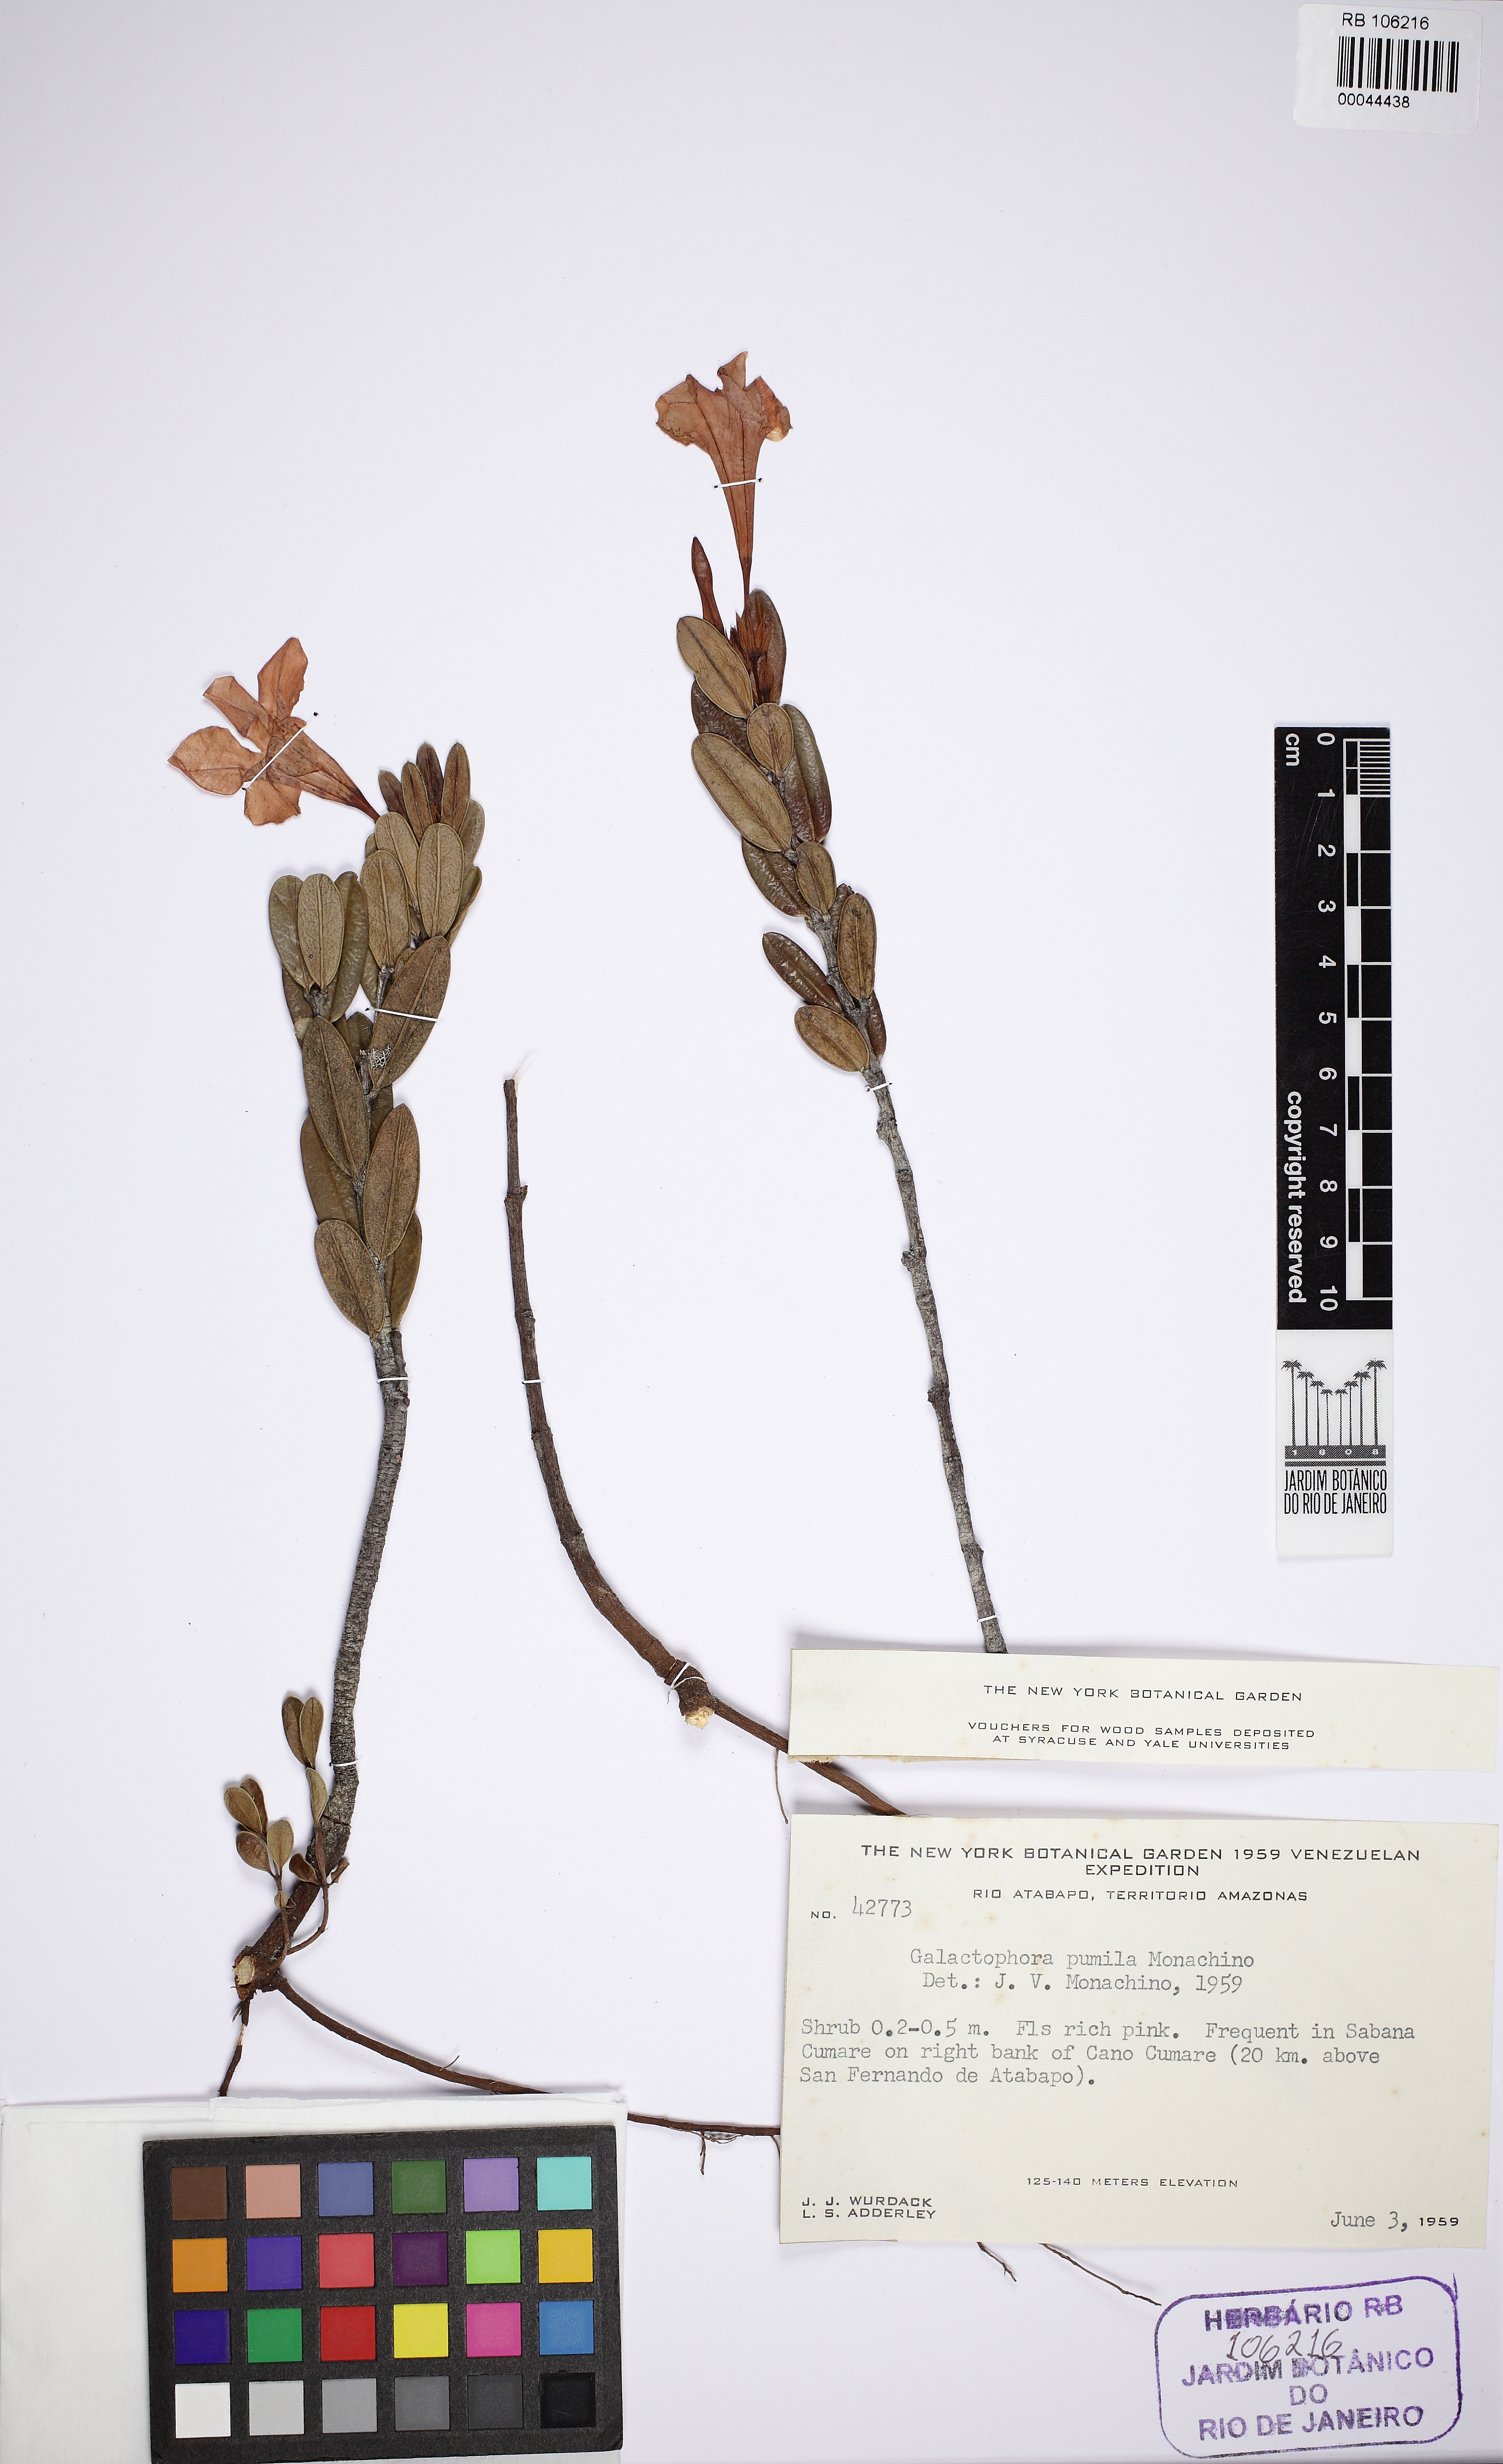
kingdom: Plantae
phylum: Tracheophyta
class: Magnoliopsida
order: Gentianales
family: Apocynaceae
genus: Galactophora
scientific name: Galactophora pumila
